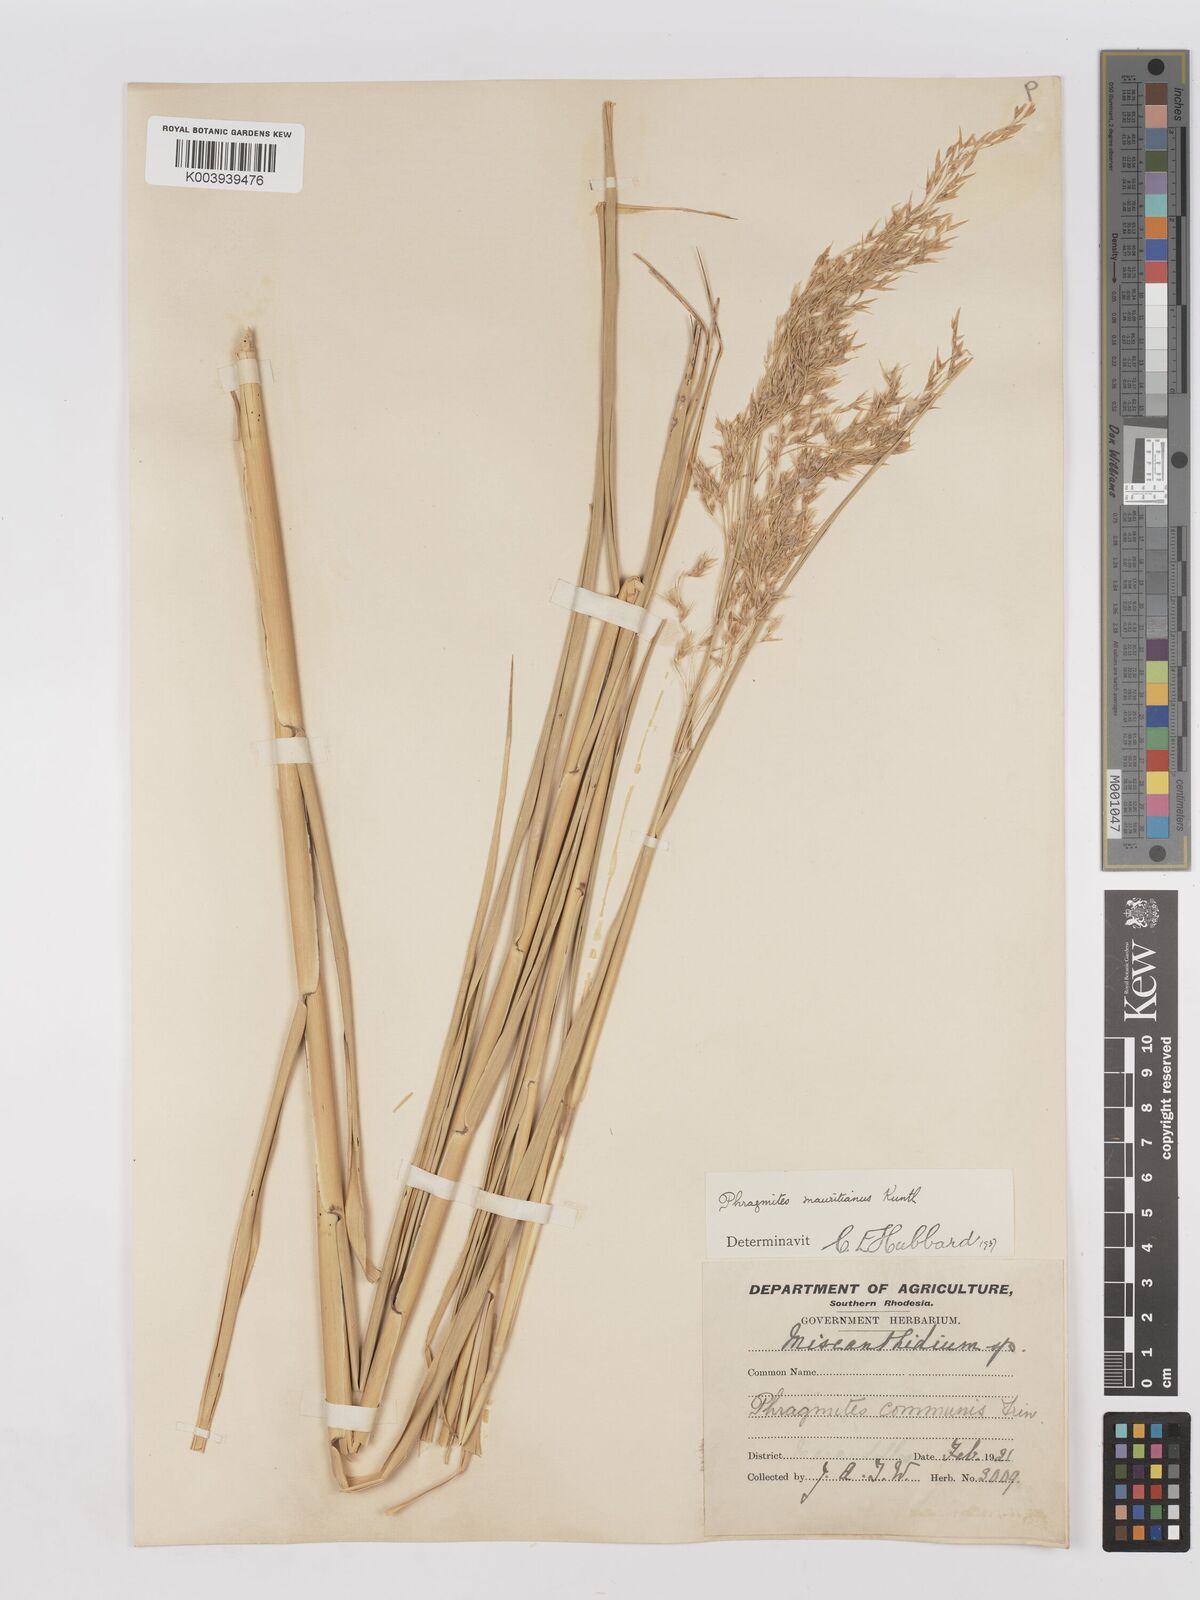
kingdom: Plantae
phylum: Tracheophyta
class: Liliopsida
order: Poales
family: Poaceae
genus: Phragmites
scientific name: Phragmites mauritianus
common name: Reed grass
